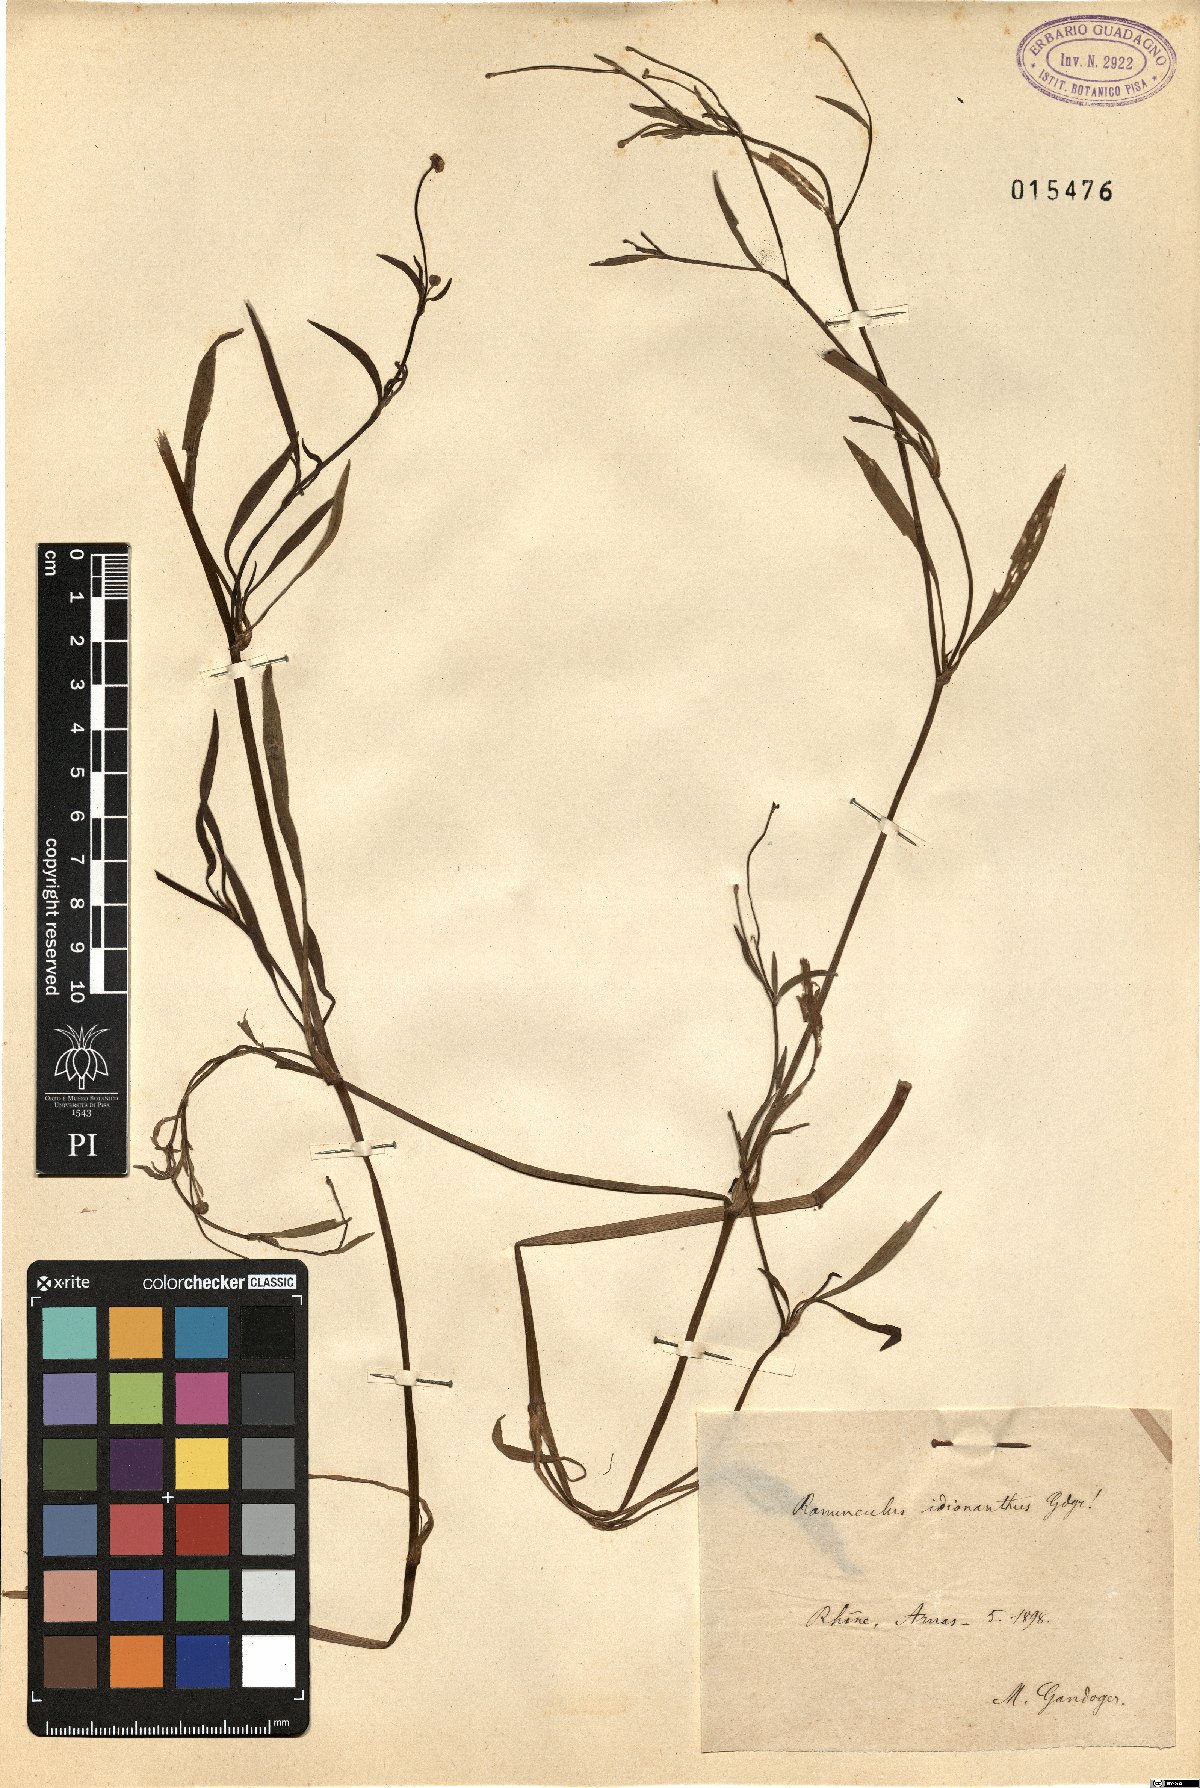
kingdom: Plantae
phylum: Tracheophyta
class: Magnoliopsida
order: Ranunculales
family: Ranunculaceae
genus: Ranunculus
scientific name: Ranunculus flammula
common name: Lesser spearwort
